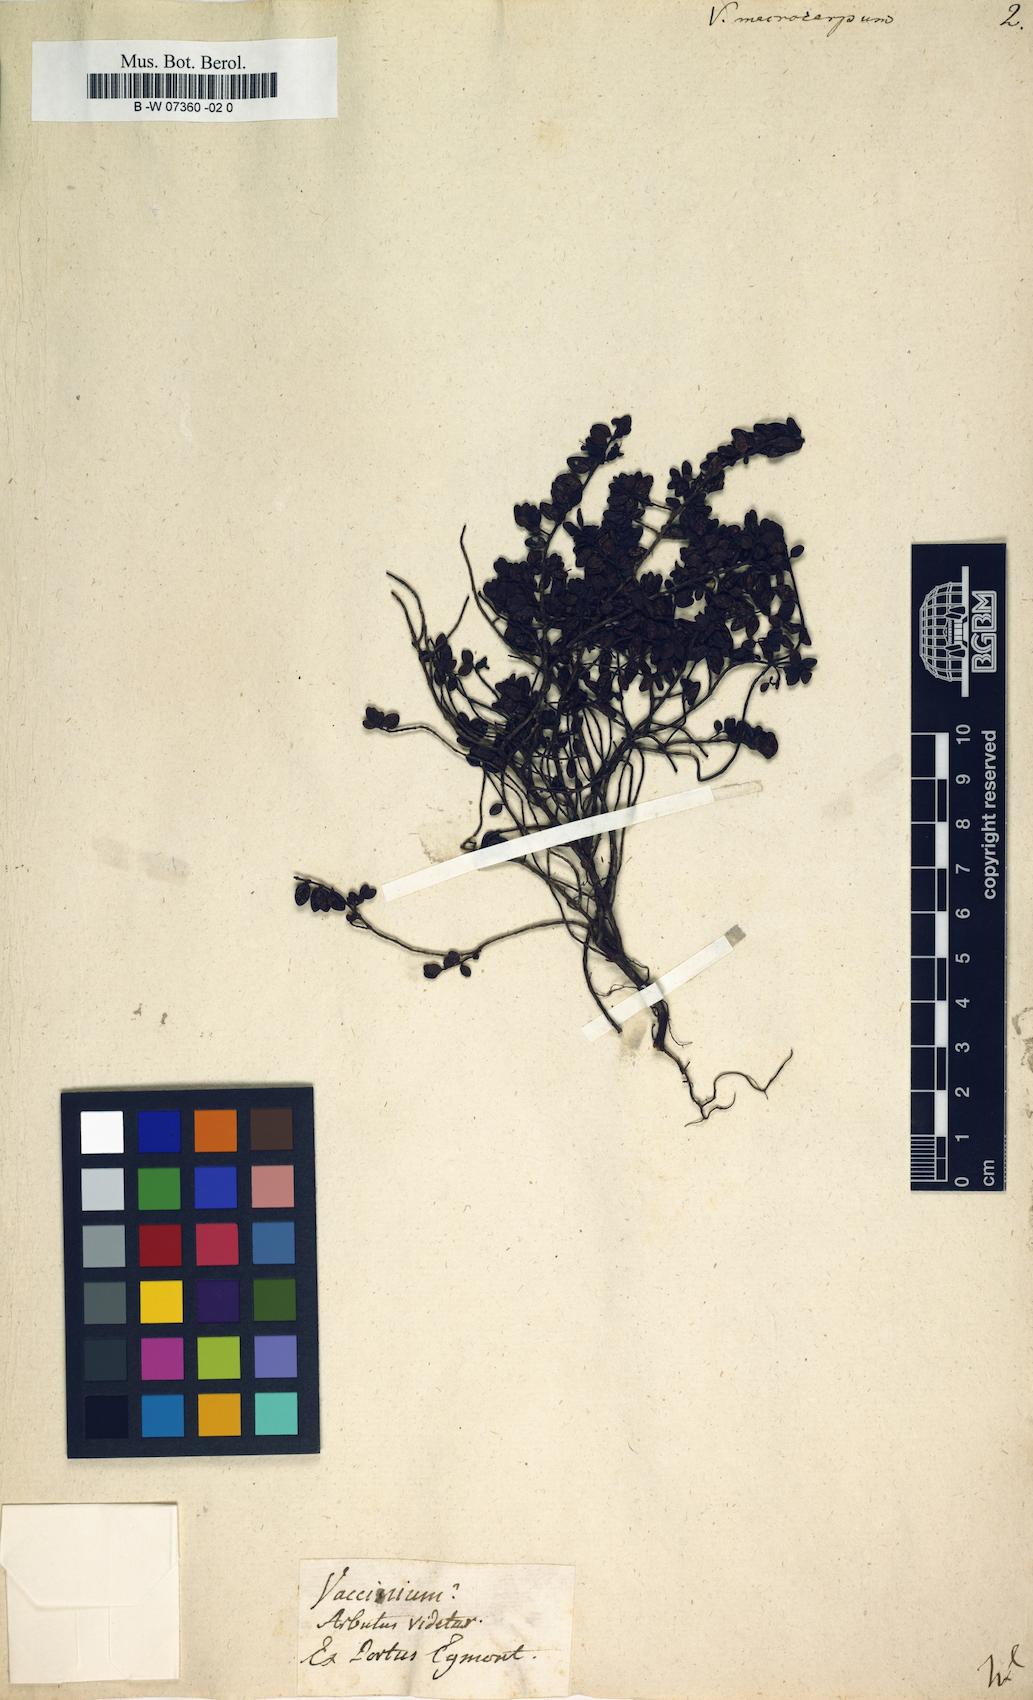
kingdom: Plantae
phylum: Tracheophyta
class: Magnoliopsida
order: Ericales
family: Ericaceae
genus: Vaccinium
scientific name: Vaccinium macrocarpon
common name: American cranberry
